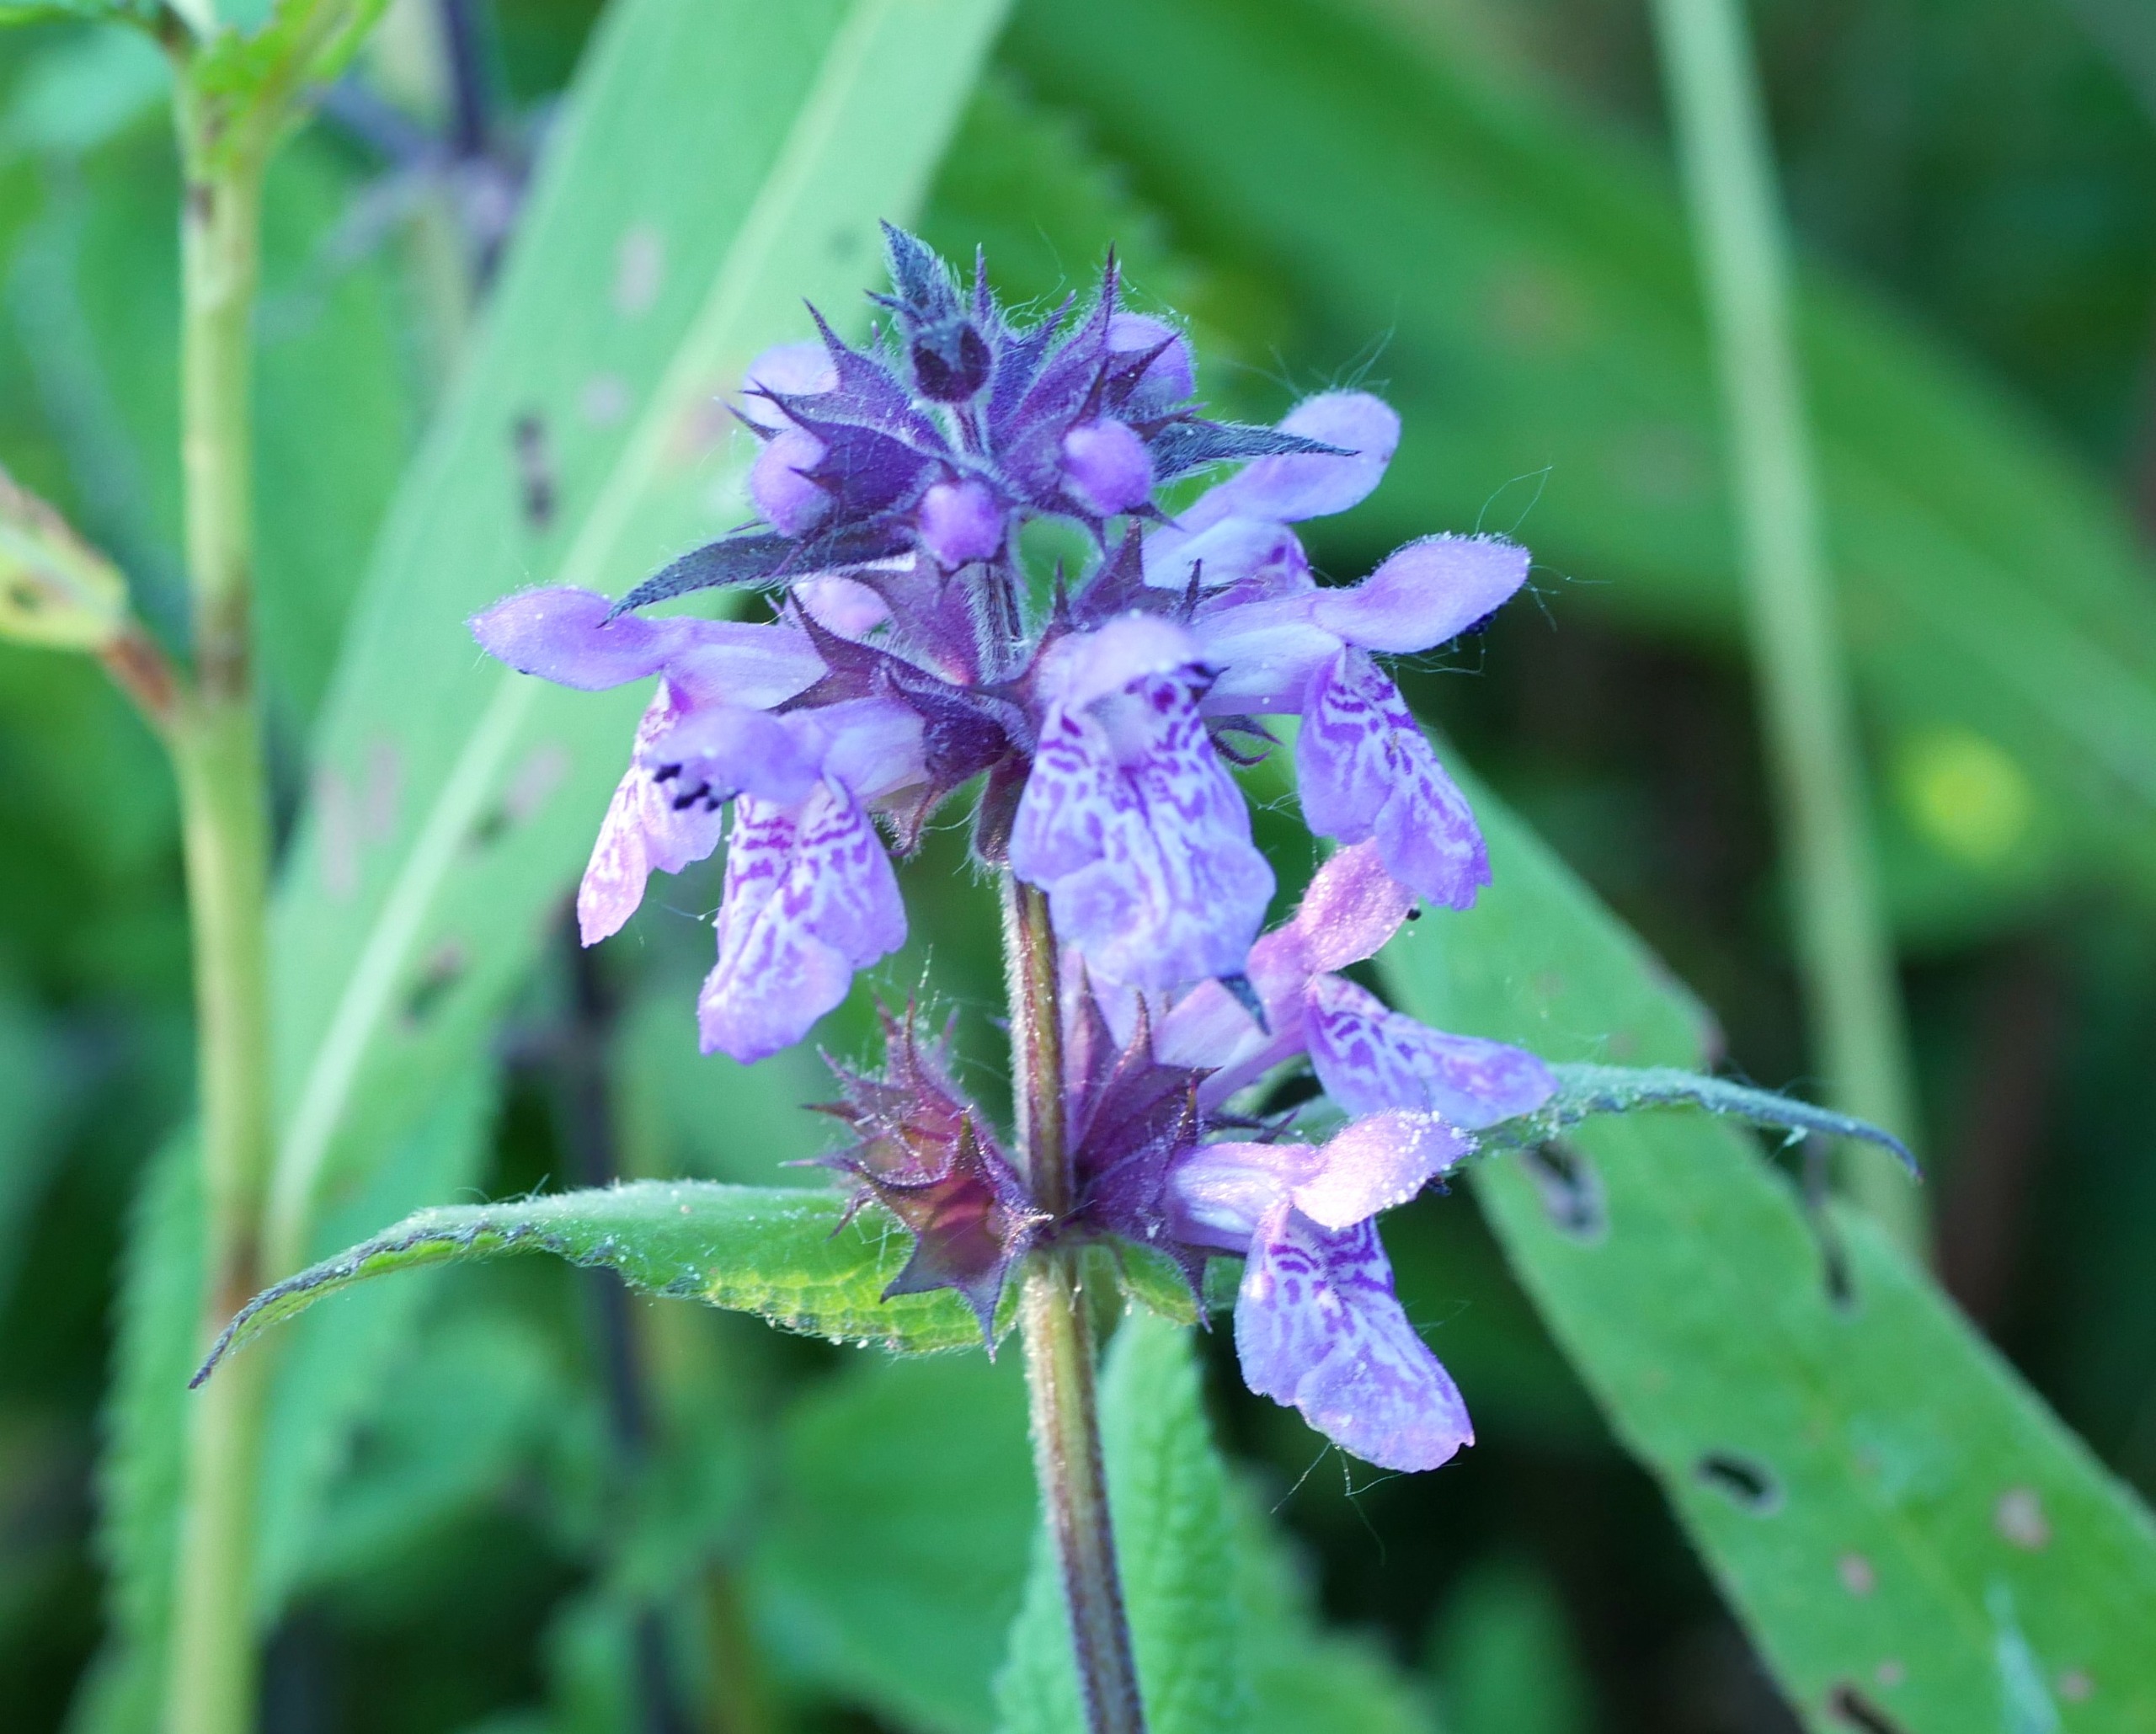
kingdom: Plantae
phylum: Tracheophyta
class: Magnoliopsida
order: Lamiales
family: Lamiaceae
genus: Stachys
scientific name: Stachys palustris
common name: Kær-galtetand
